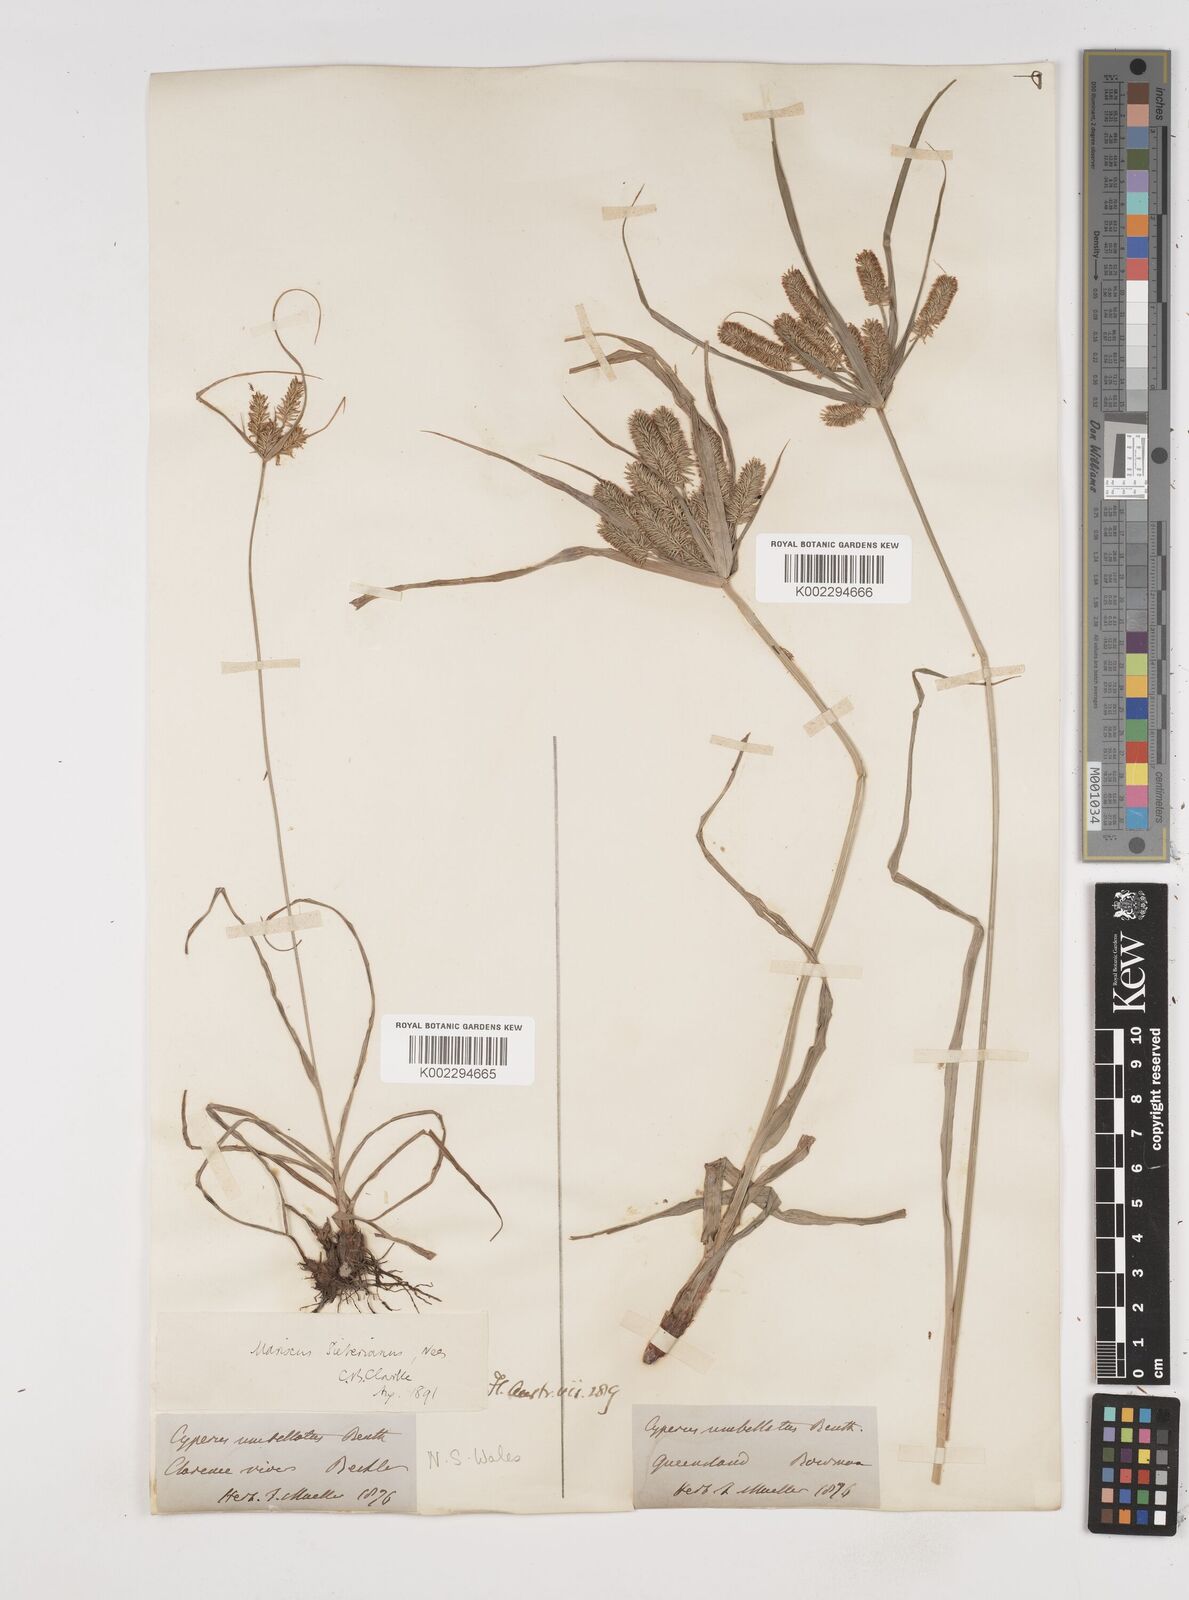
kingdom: Plantae
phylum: Tracheophyta
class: Liliopsida
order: Poales
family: Cyperaceae
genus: Cyperus
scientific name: Cyperus cyperoides
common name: Pacific island flat sedge
